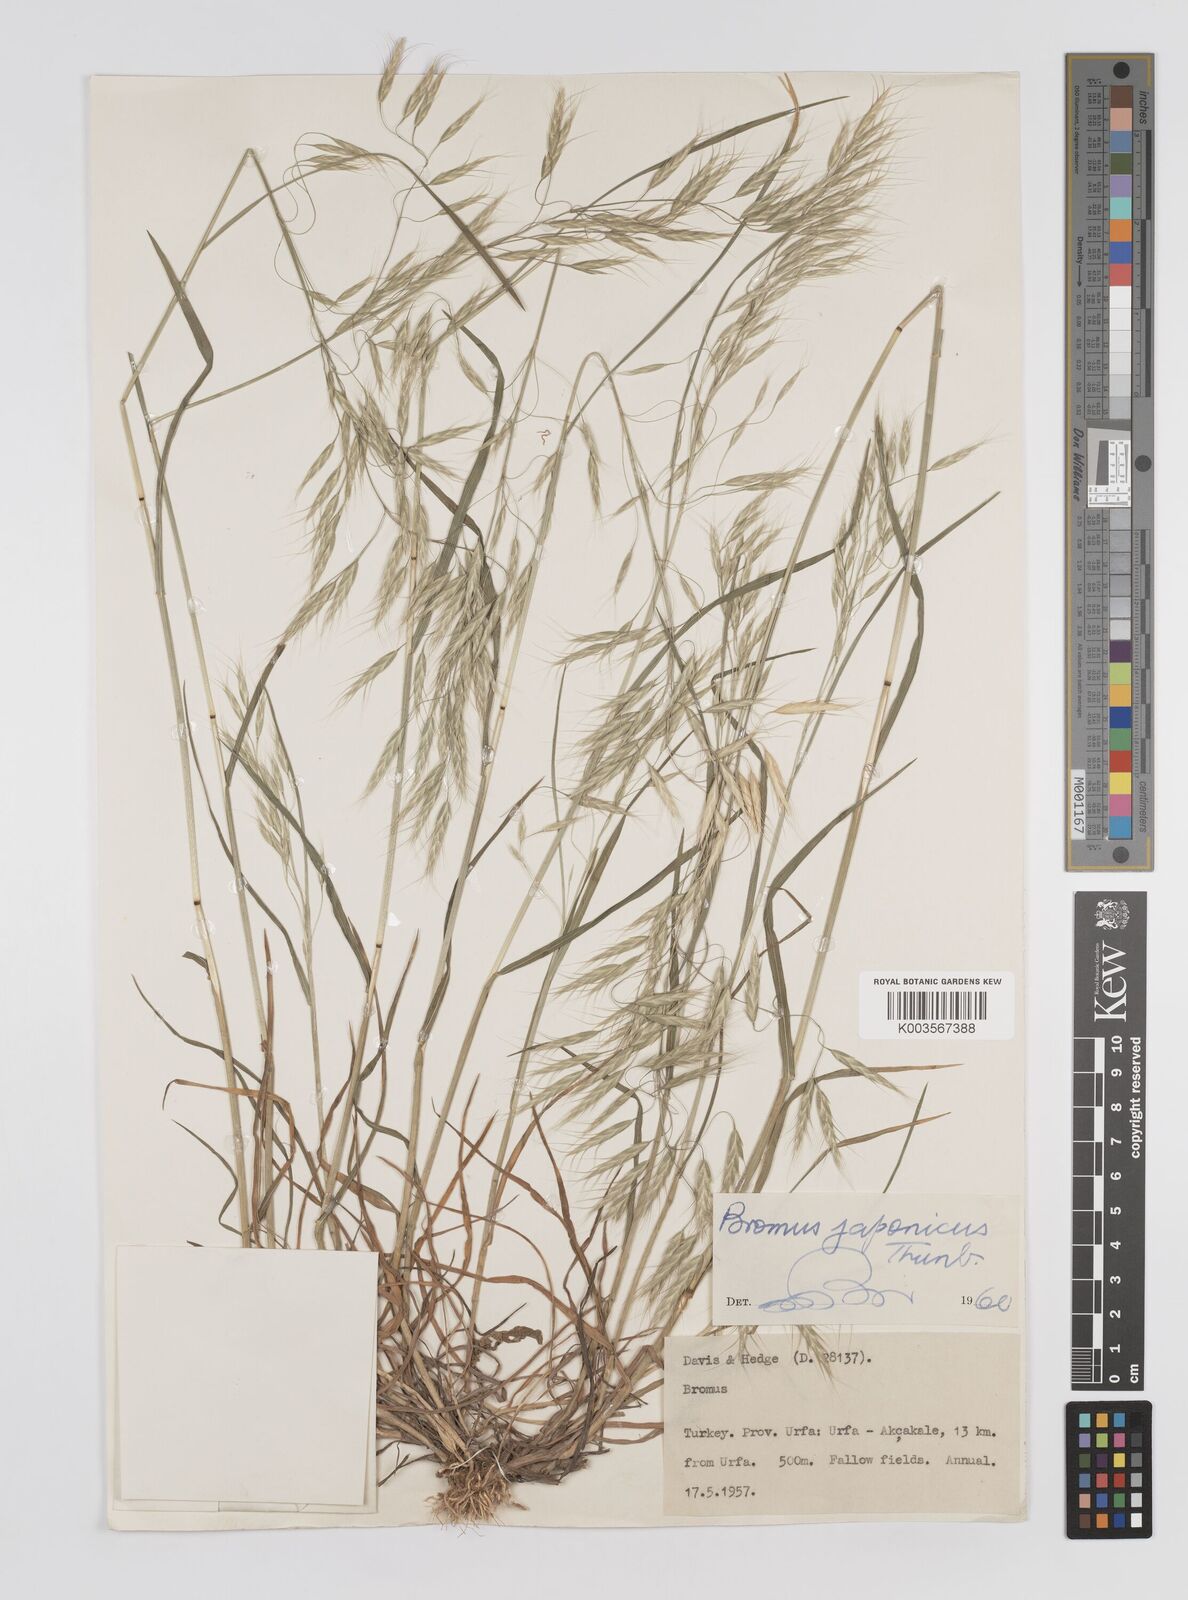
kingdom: Plantae
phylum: Tracheophyta
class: Liliopsida
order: Poales
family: Poaceae
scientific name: Poaceae
